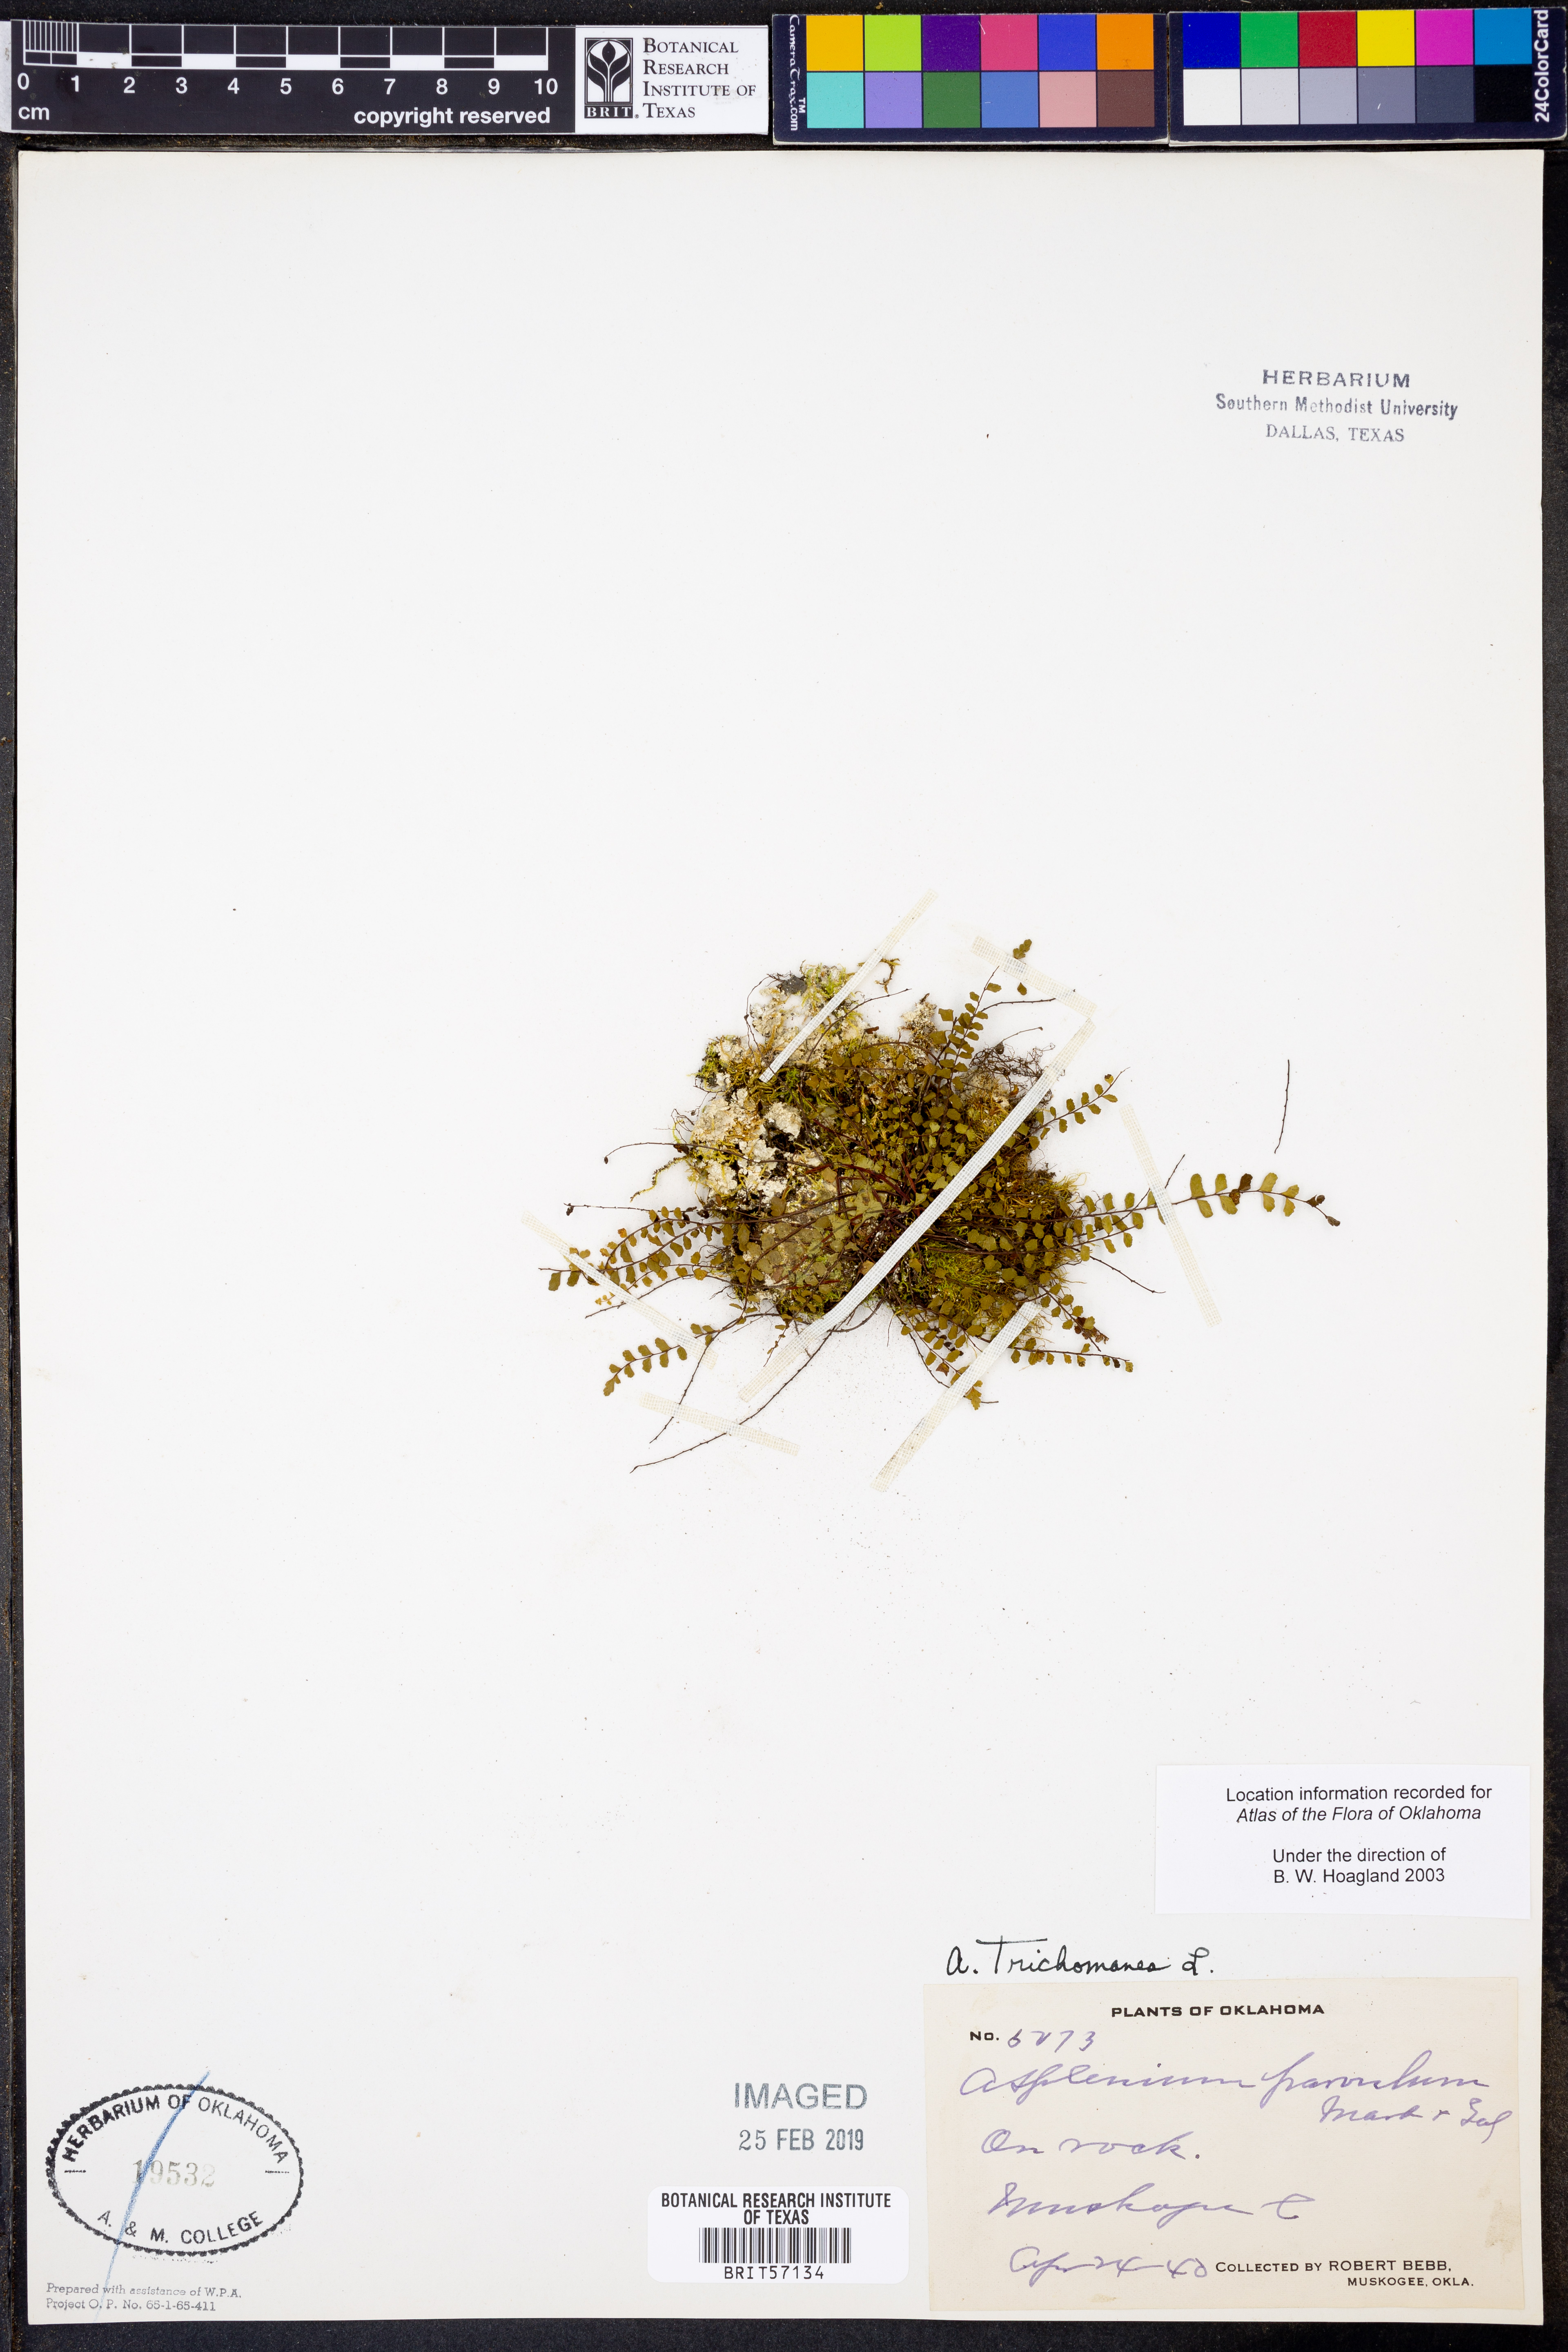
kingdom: Plantae
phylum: Tracheophyta
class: Polypodiopsida
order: Polypodiales
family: Aspleniaceae
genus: Asplenium
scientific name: Asplenium trichomanes
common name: Maidenhair spleenwort
